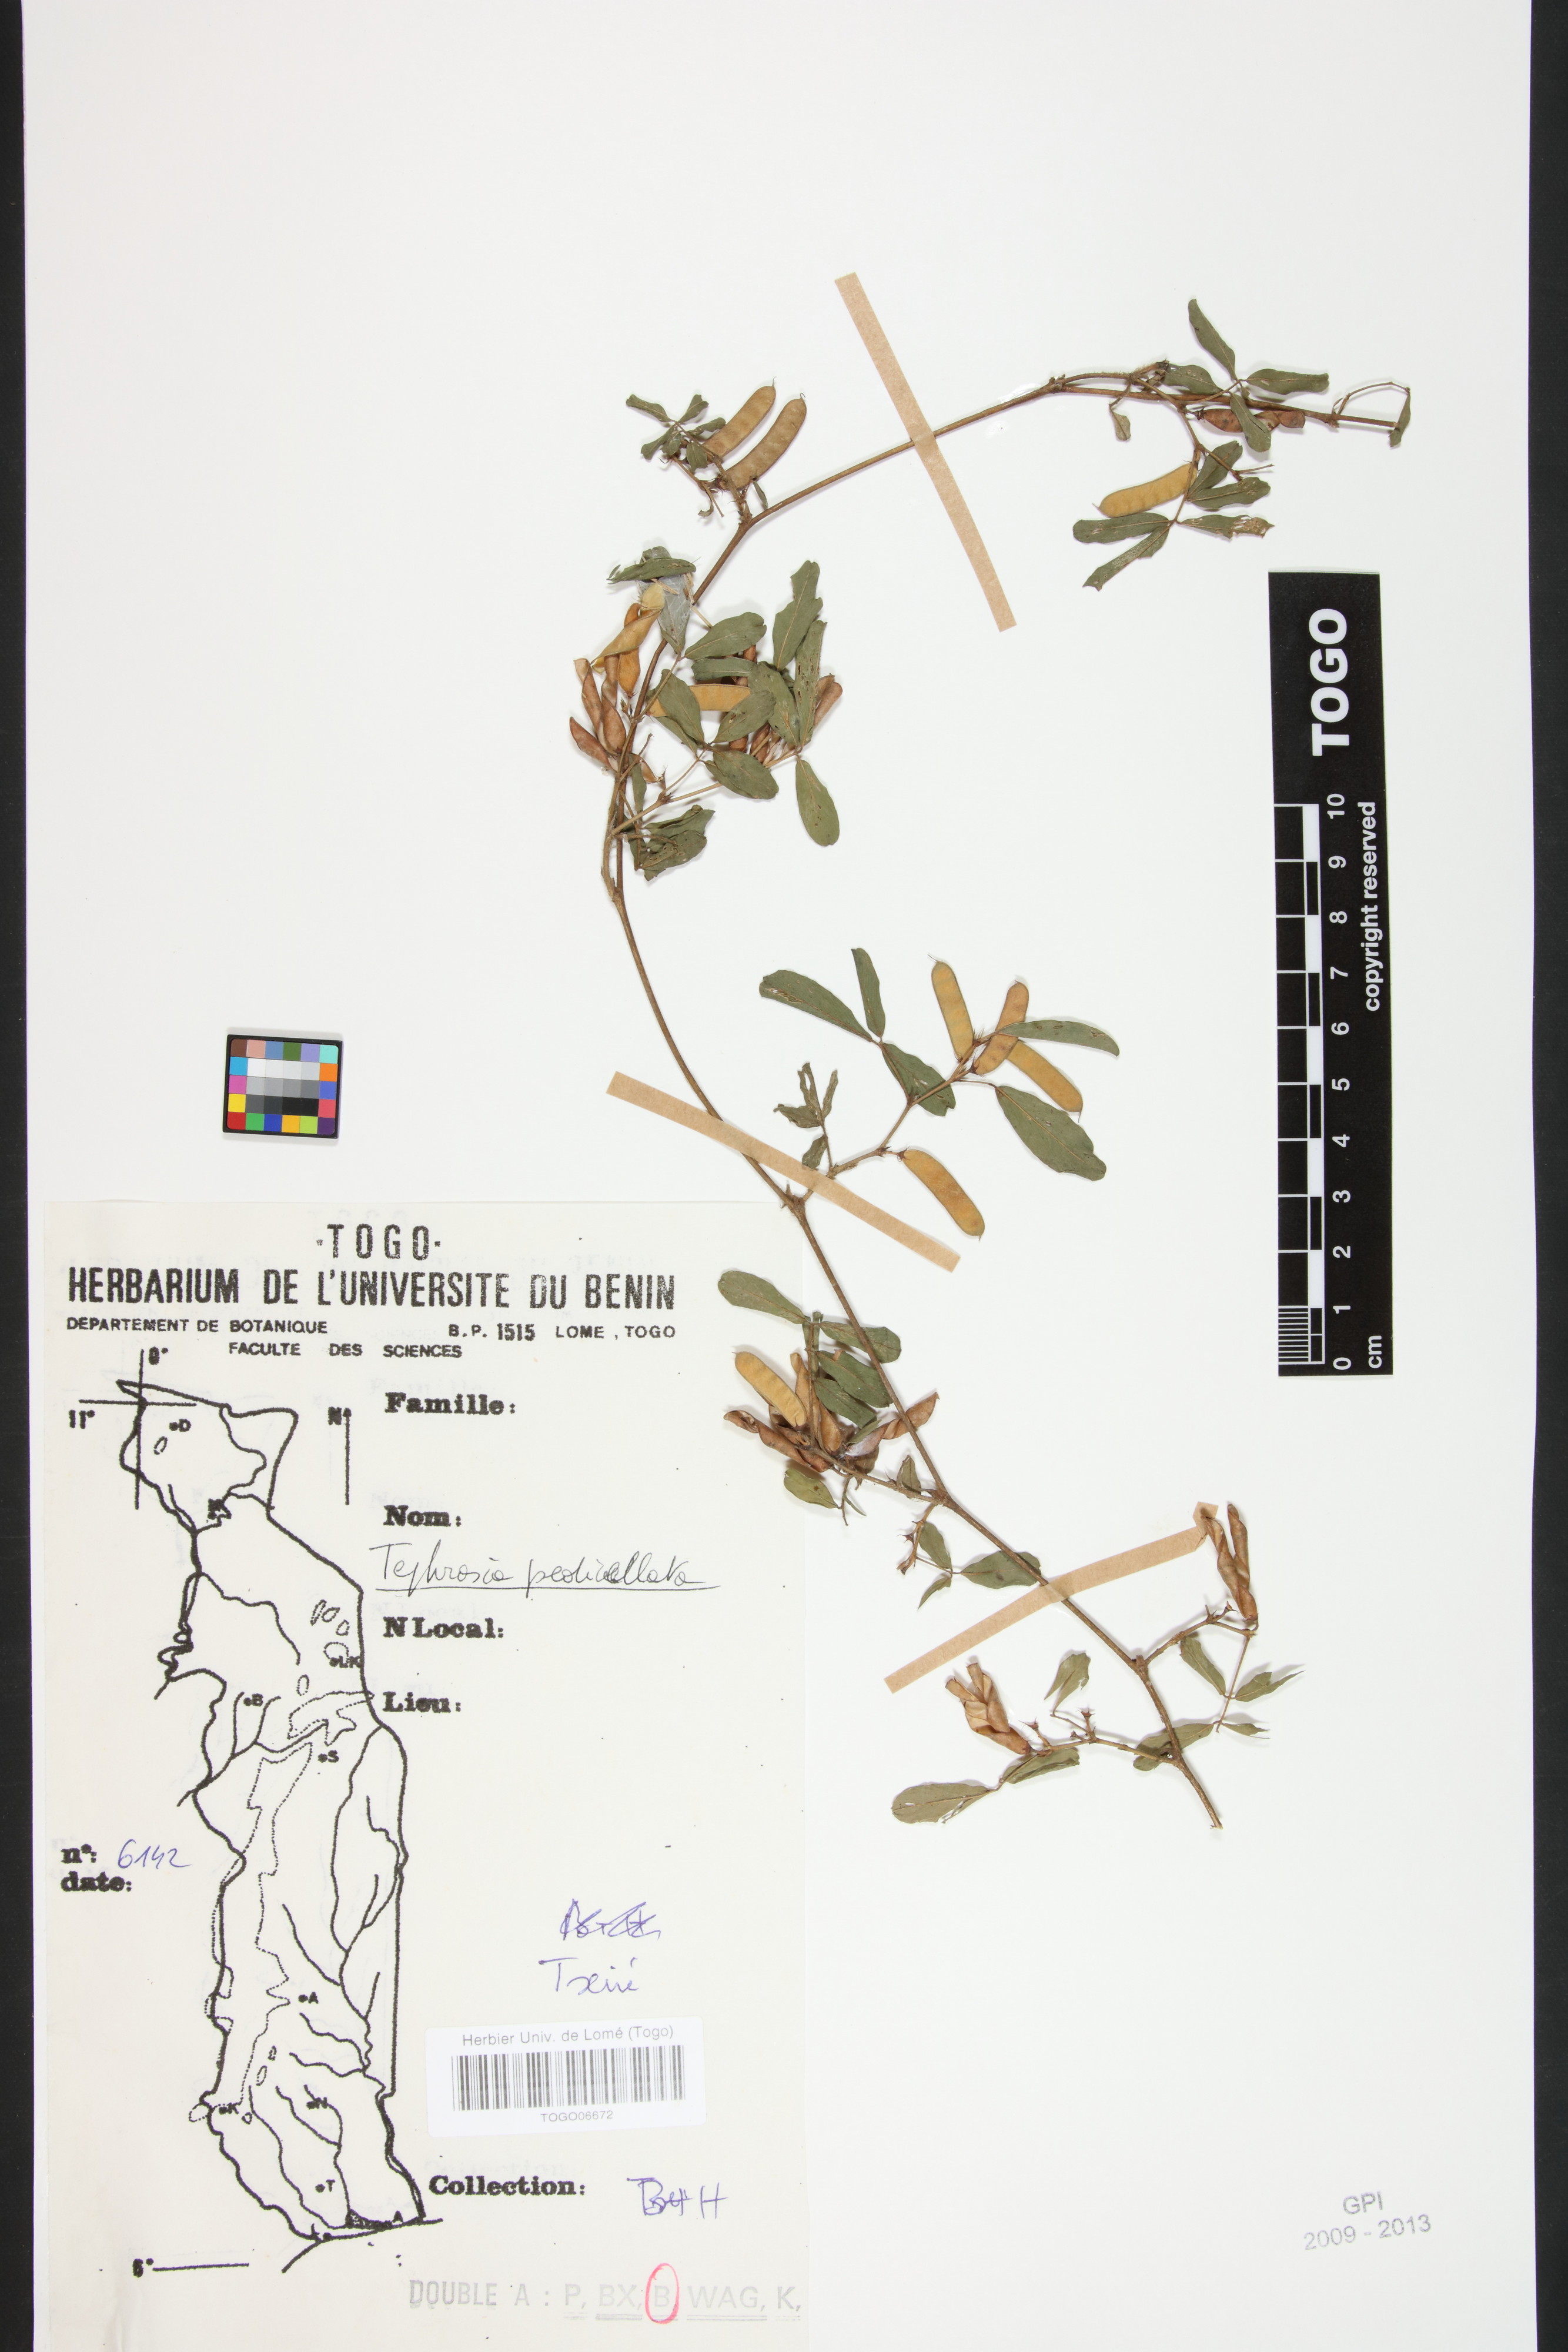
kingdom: Plantae
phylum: Tracheophyta
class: Magnoliopsida
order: Fabales
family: Fabaceae
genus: Tephrosia
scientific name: Tephrosia pedicellata
